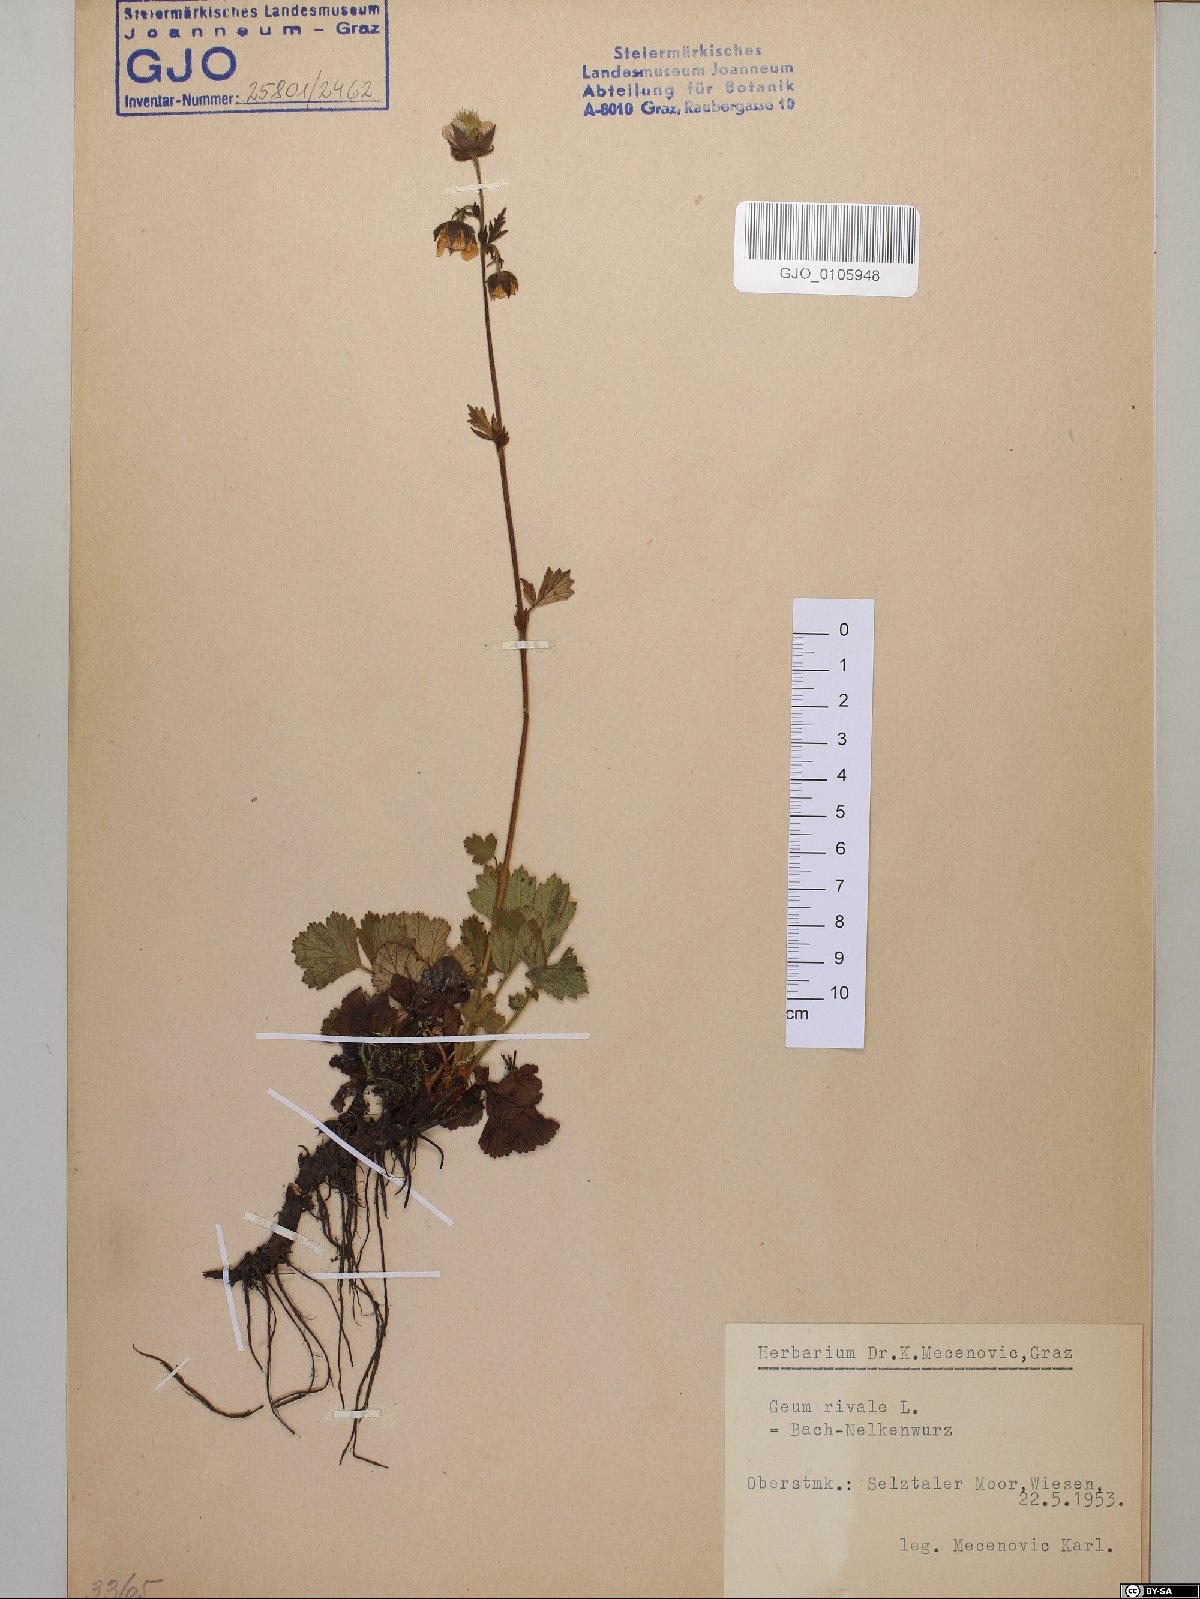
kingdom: Plantae
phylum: Tracheophyta
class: Magnoliopsida
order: Rosales
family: Rosaceae
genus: Geum
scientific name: Geum rivale
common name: Water avens
